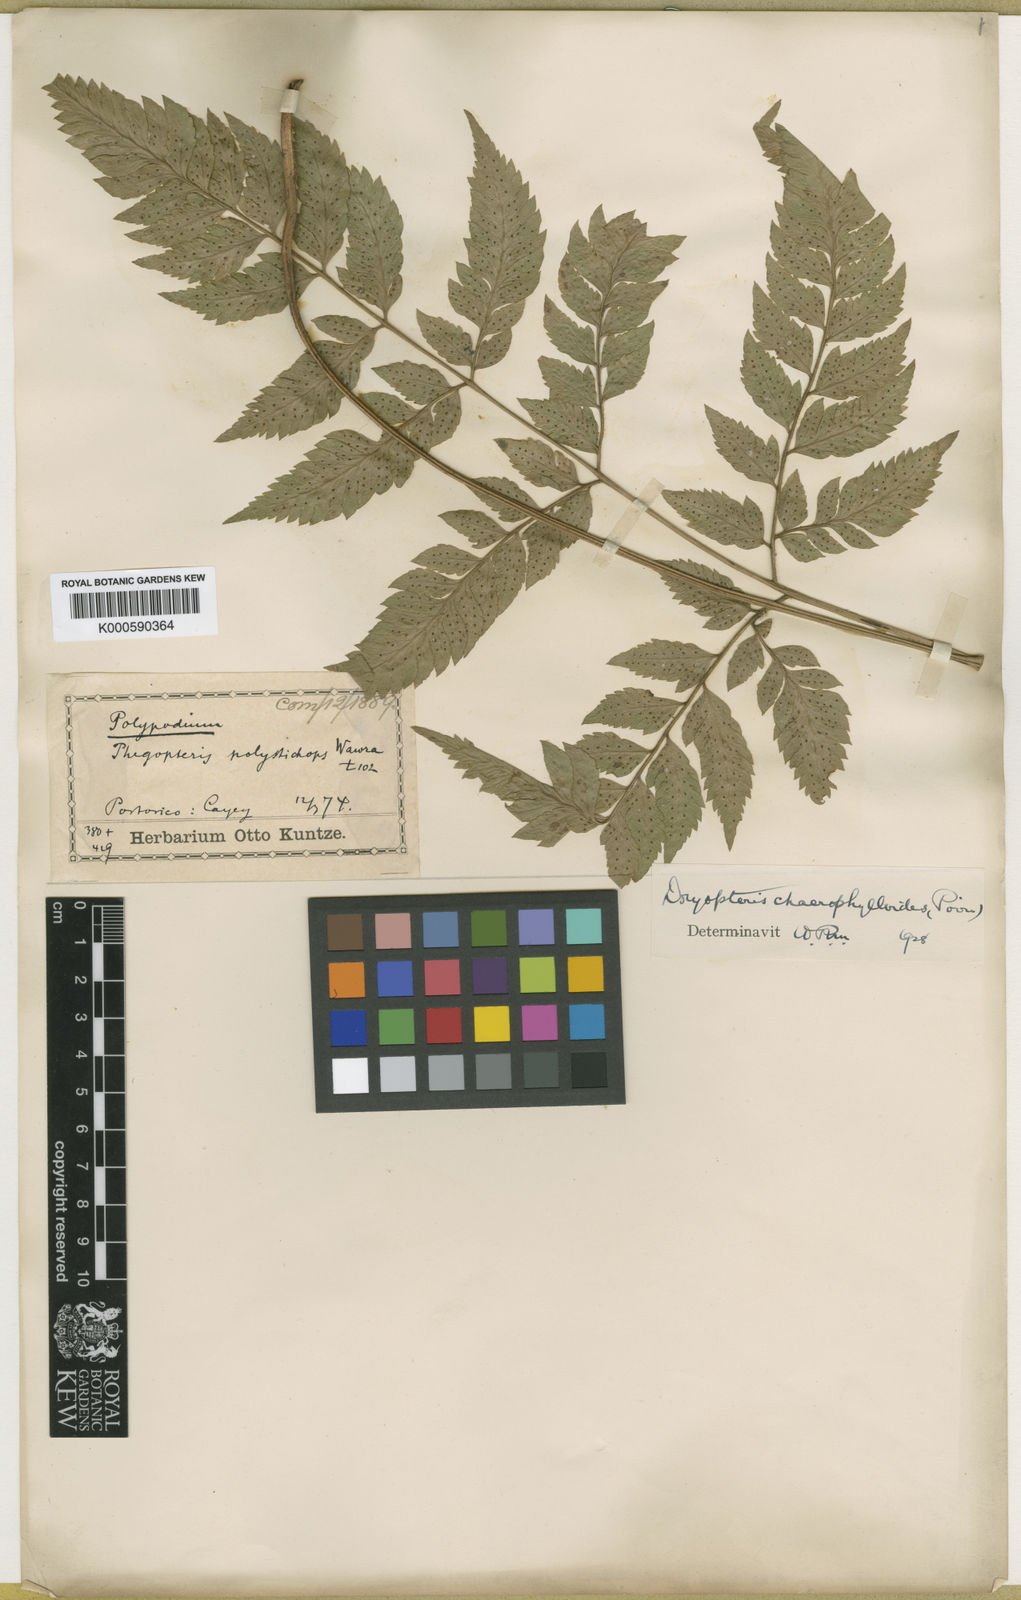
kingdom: Plantae
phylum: Tracheophyta
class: Polypodiopsida
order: Polypodiales
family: Dryopteridaceae
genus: Polystichopsis
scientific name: Polystichopsis chaerophylloides
